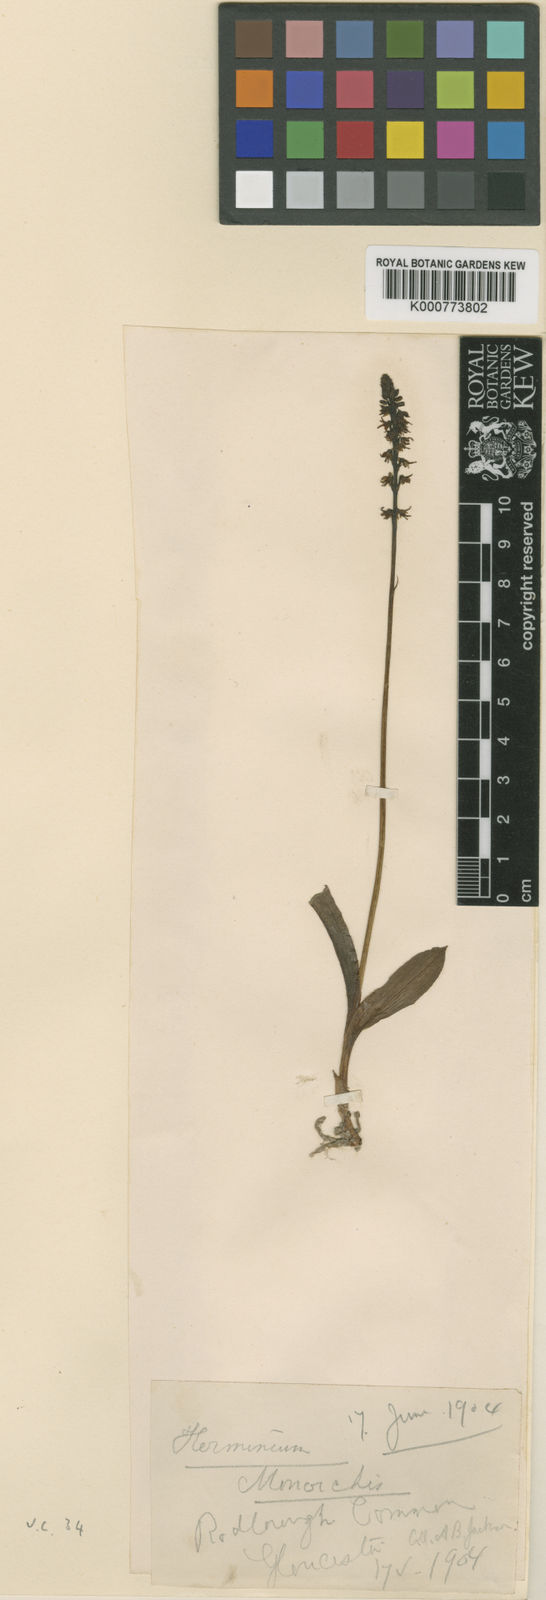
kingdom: Plantae
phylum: Tracheophyta
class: Liliopsida
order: Asparagales
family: Orchidaceae
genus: Herminium
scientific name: Herminium monorchis
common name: Musk orchid
